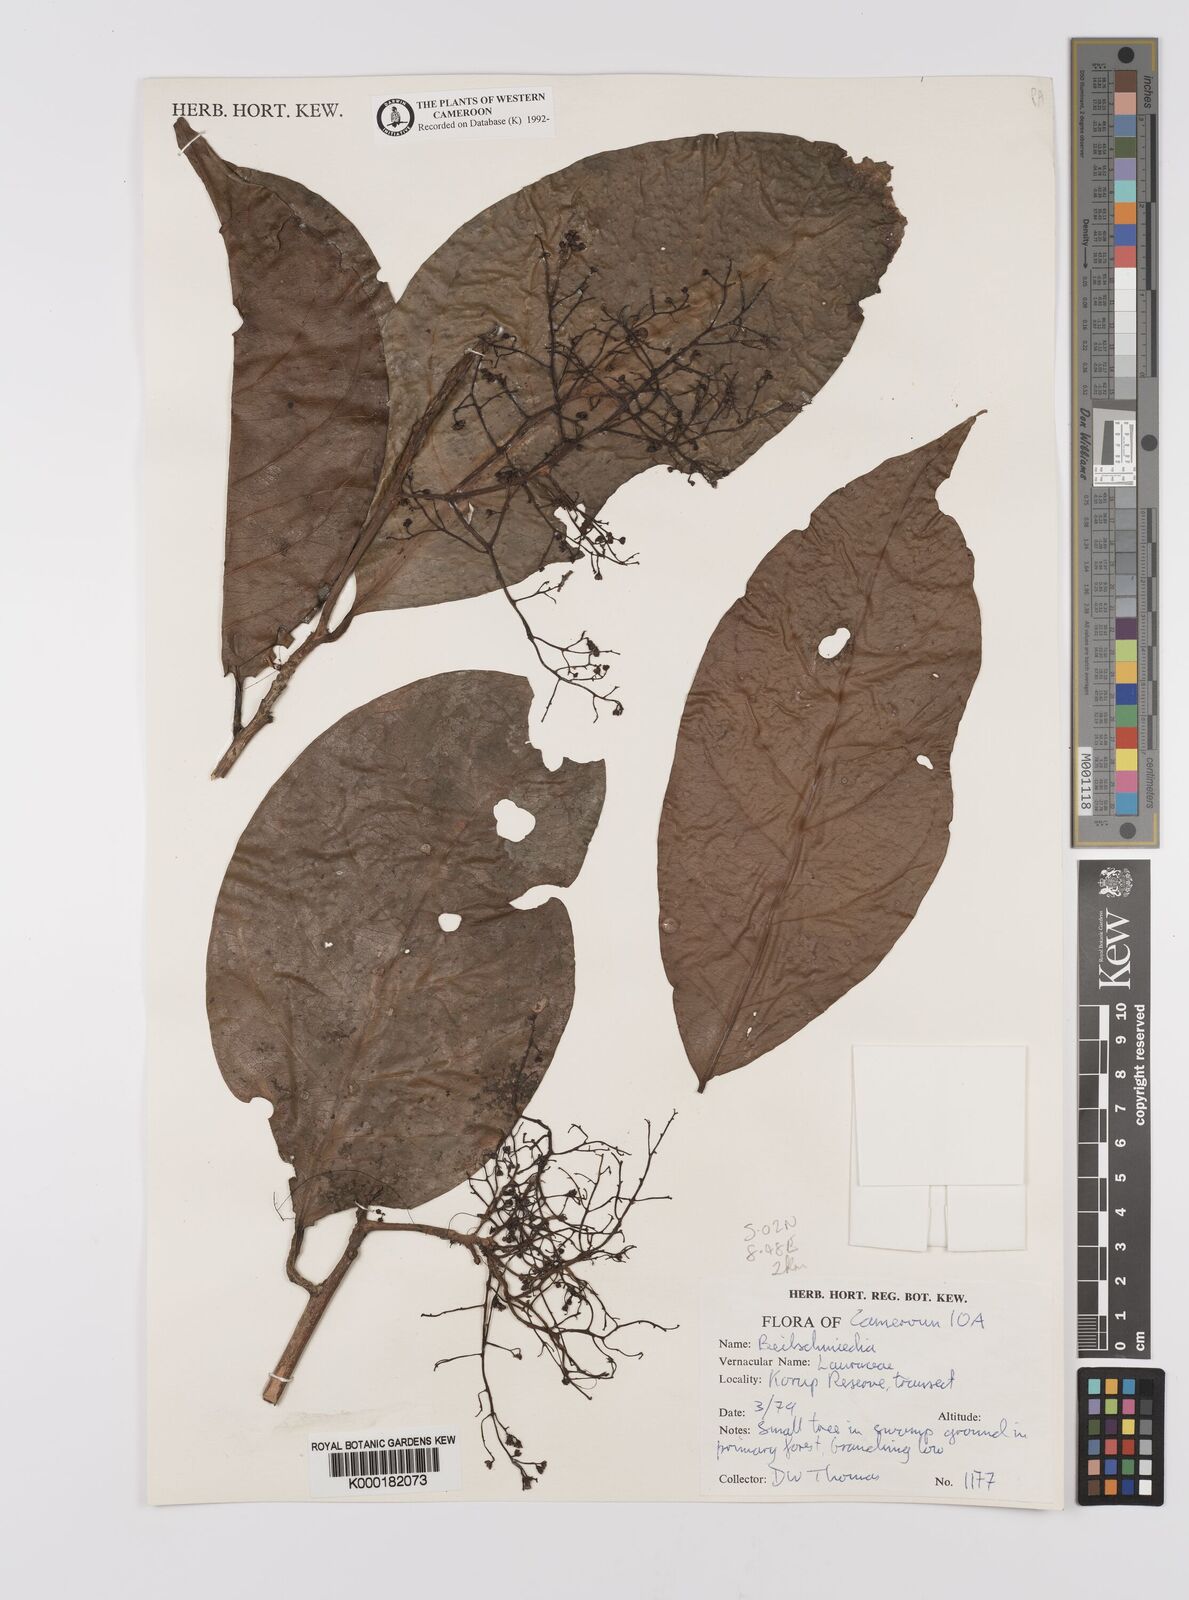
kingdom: Plantae
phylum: Tracheophyta
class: Magnoliopsida
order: Laurales
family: Lauraceae
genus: Beilschmiedia
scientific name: Beilschmiedia
